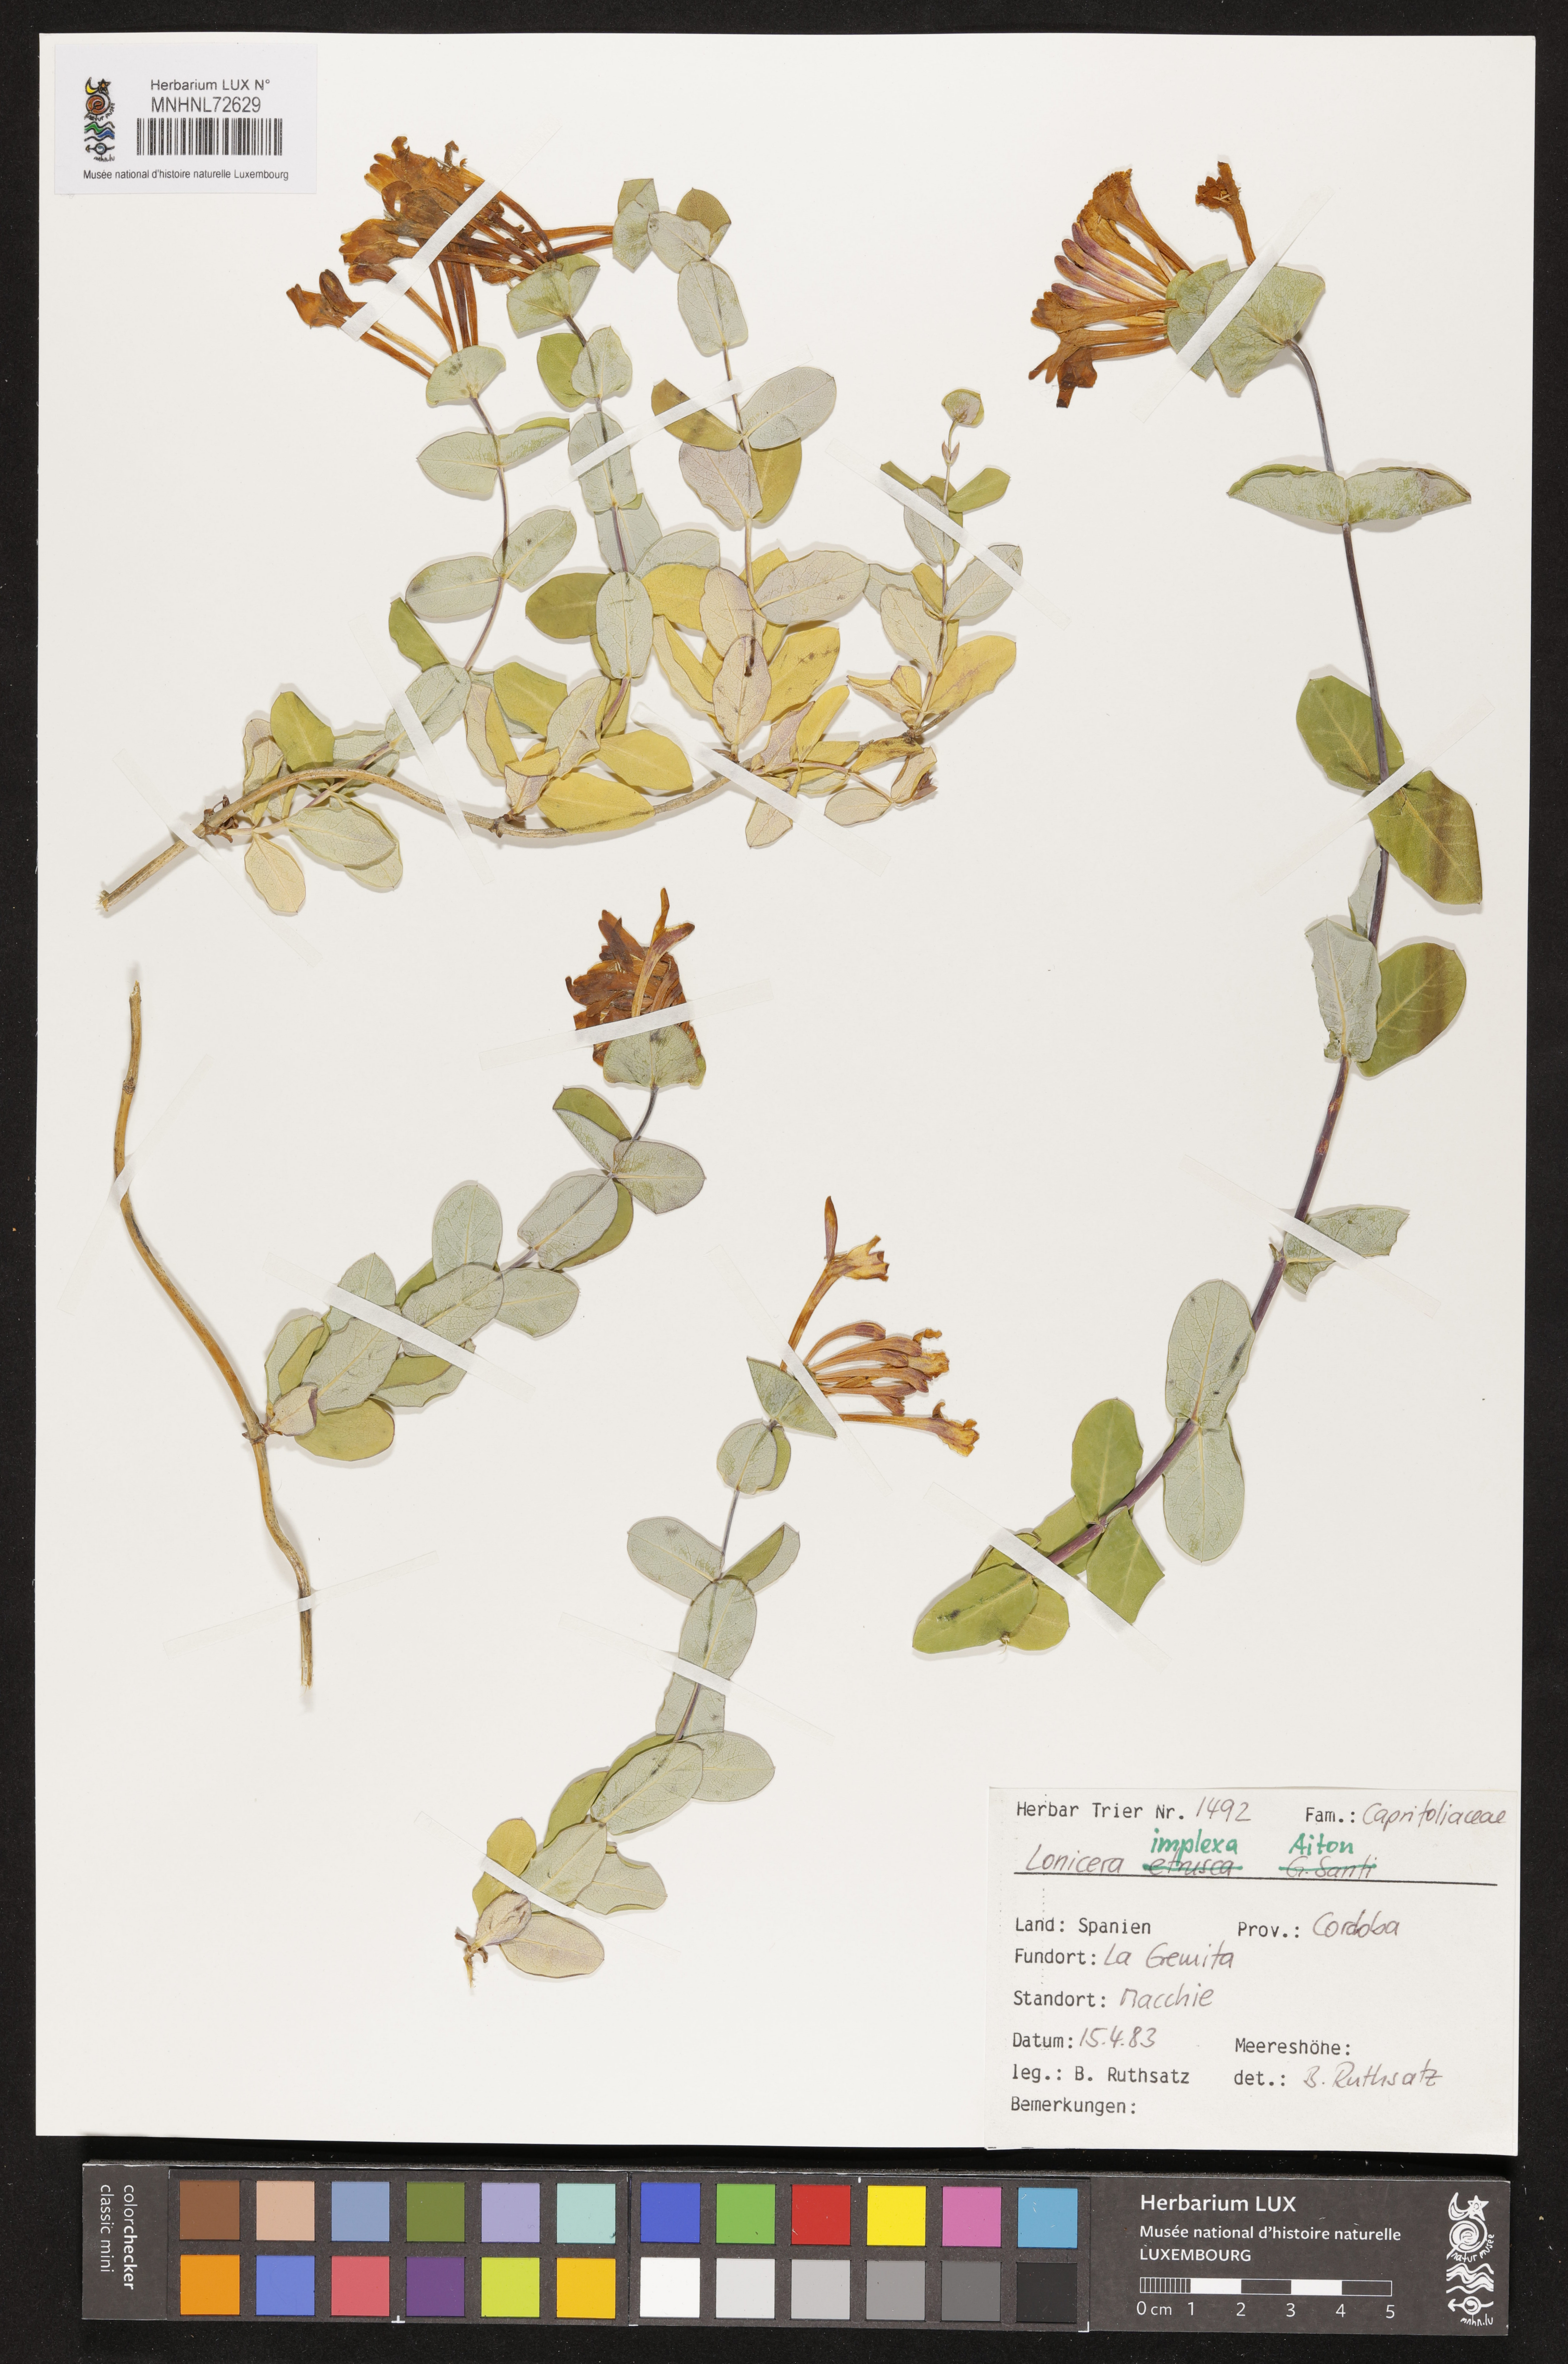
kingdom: Plantae
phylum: Tracheophyta
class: Magnoliopsida
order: Dipsacales
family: Caprifoliaceae
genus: Lonicera
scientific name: Lonicera implexa
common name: Minorca honeysuckle
